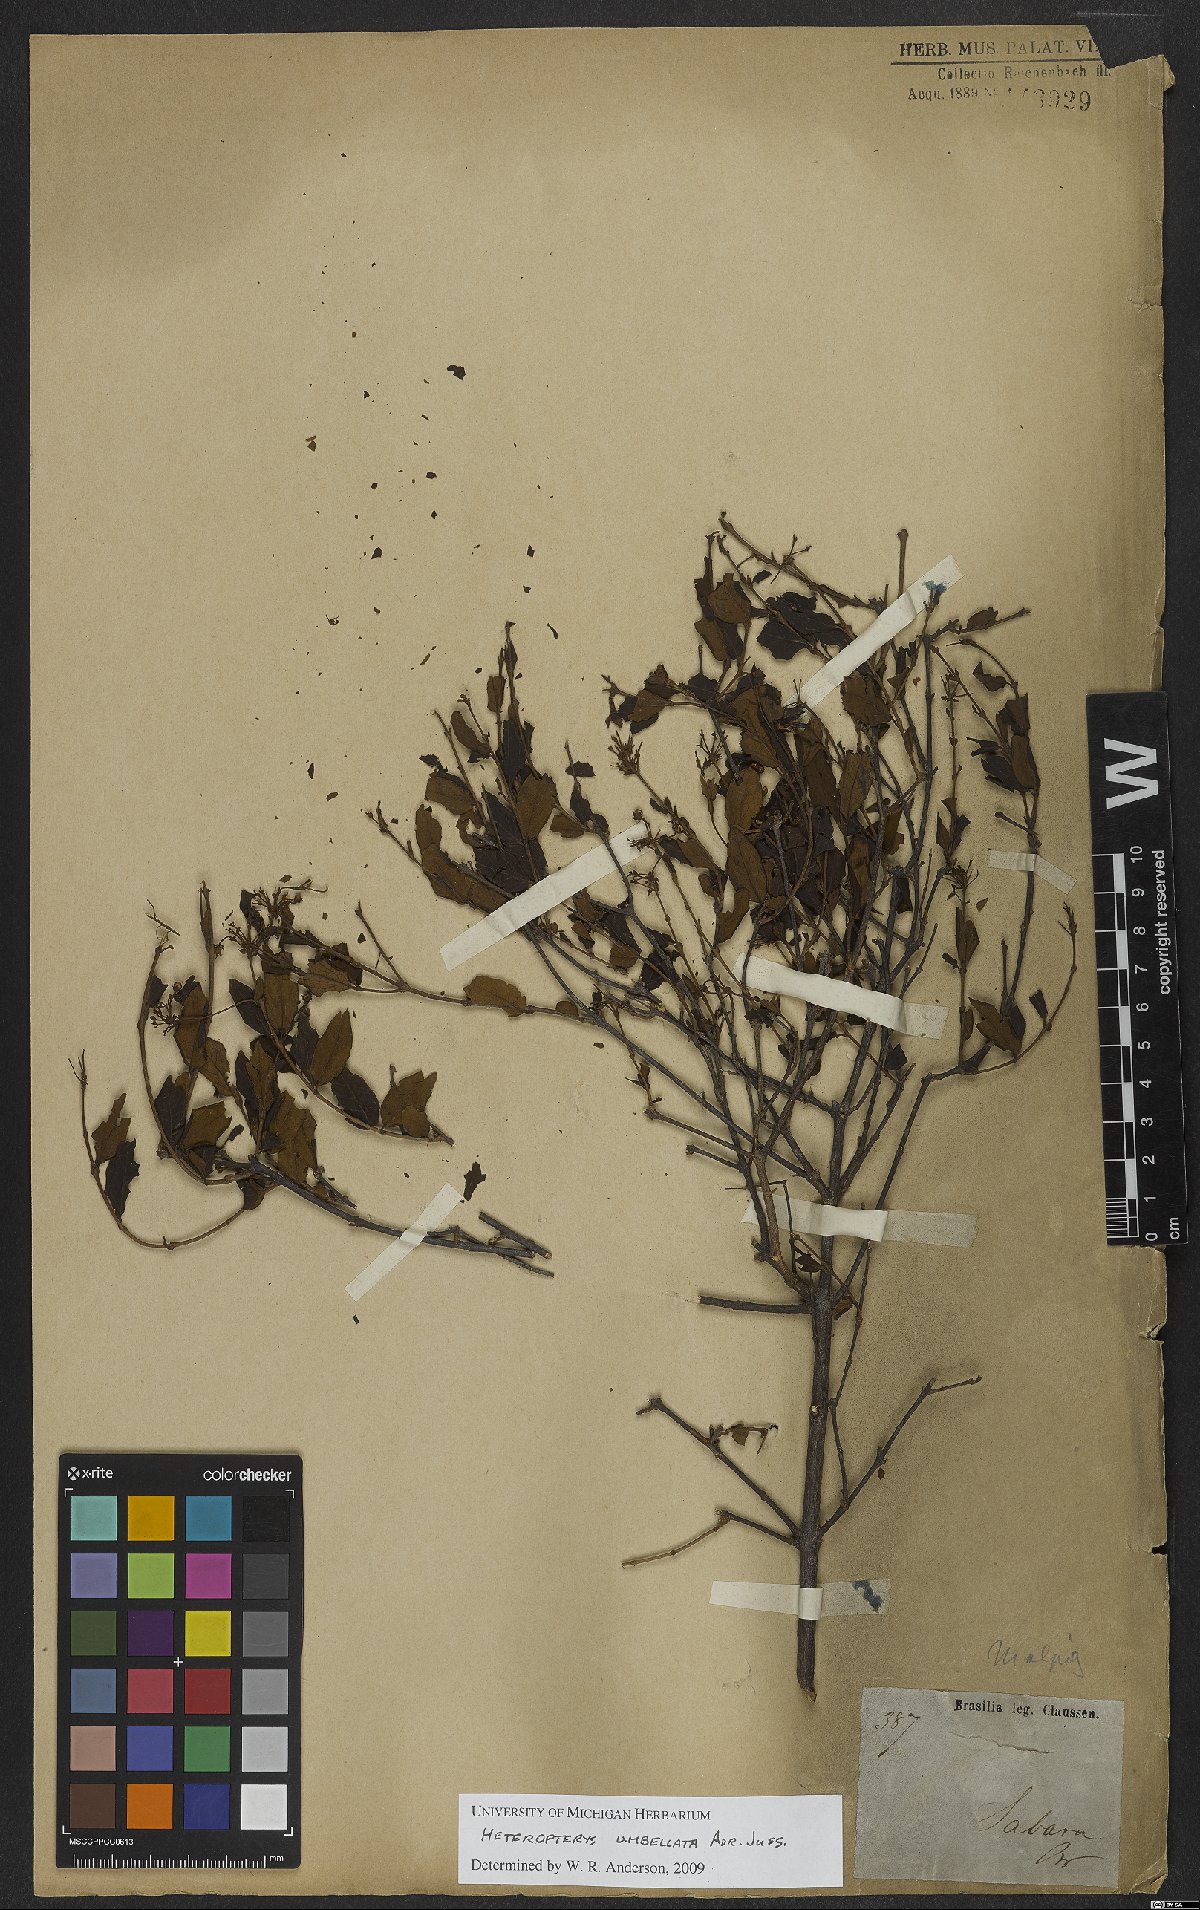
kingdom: Plantae
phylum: Tracheophyta
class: Magnoliopsida
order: Malpighiales
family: Malpighiaceae
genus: Heteropterys
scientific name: Heteropterys umbellata
